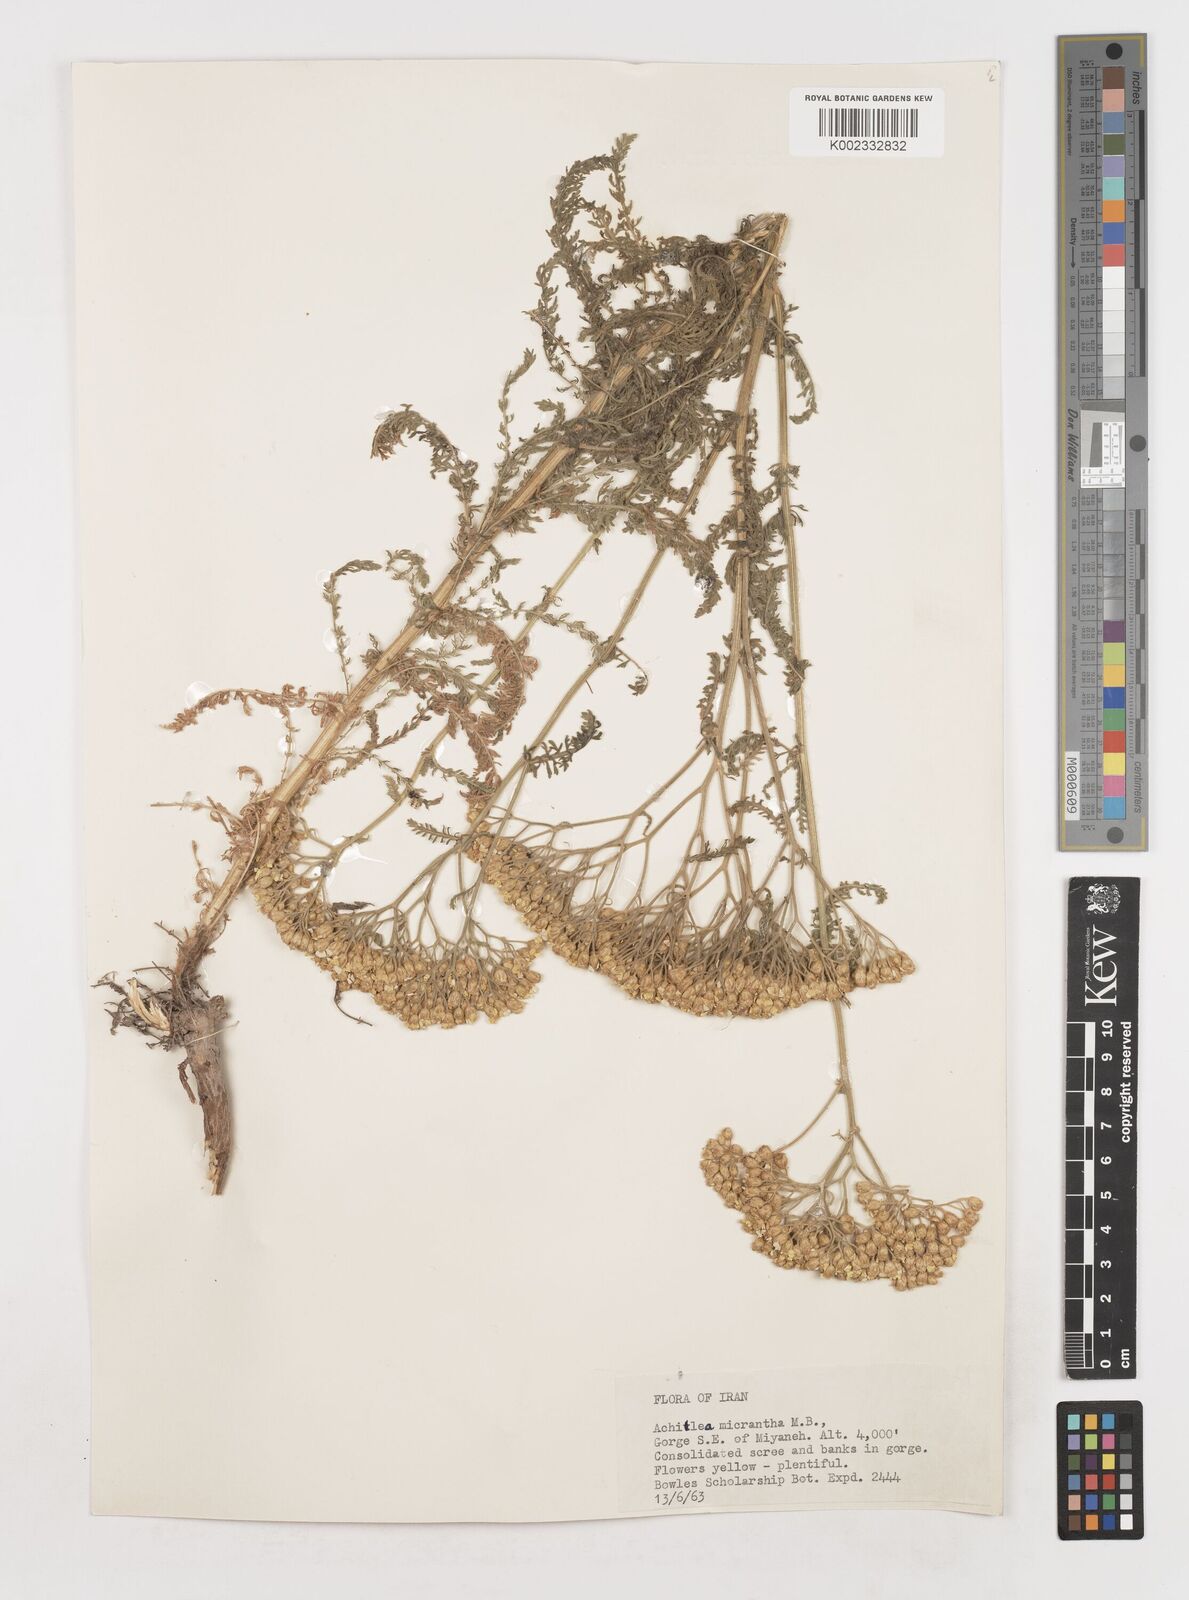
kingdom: Plantae
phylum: Tracheophyta
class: Magnoliopsida
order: Asterales
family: Asteraceae
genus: Achillea
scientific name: Achillea arabica
